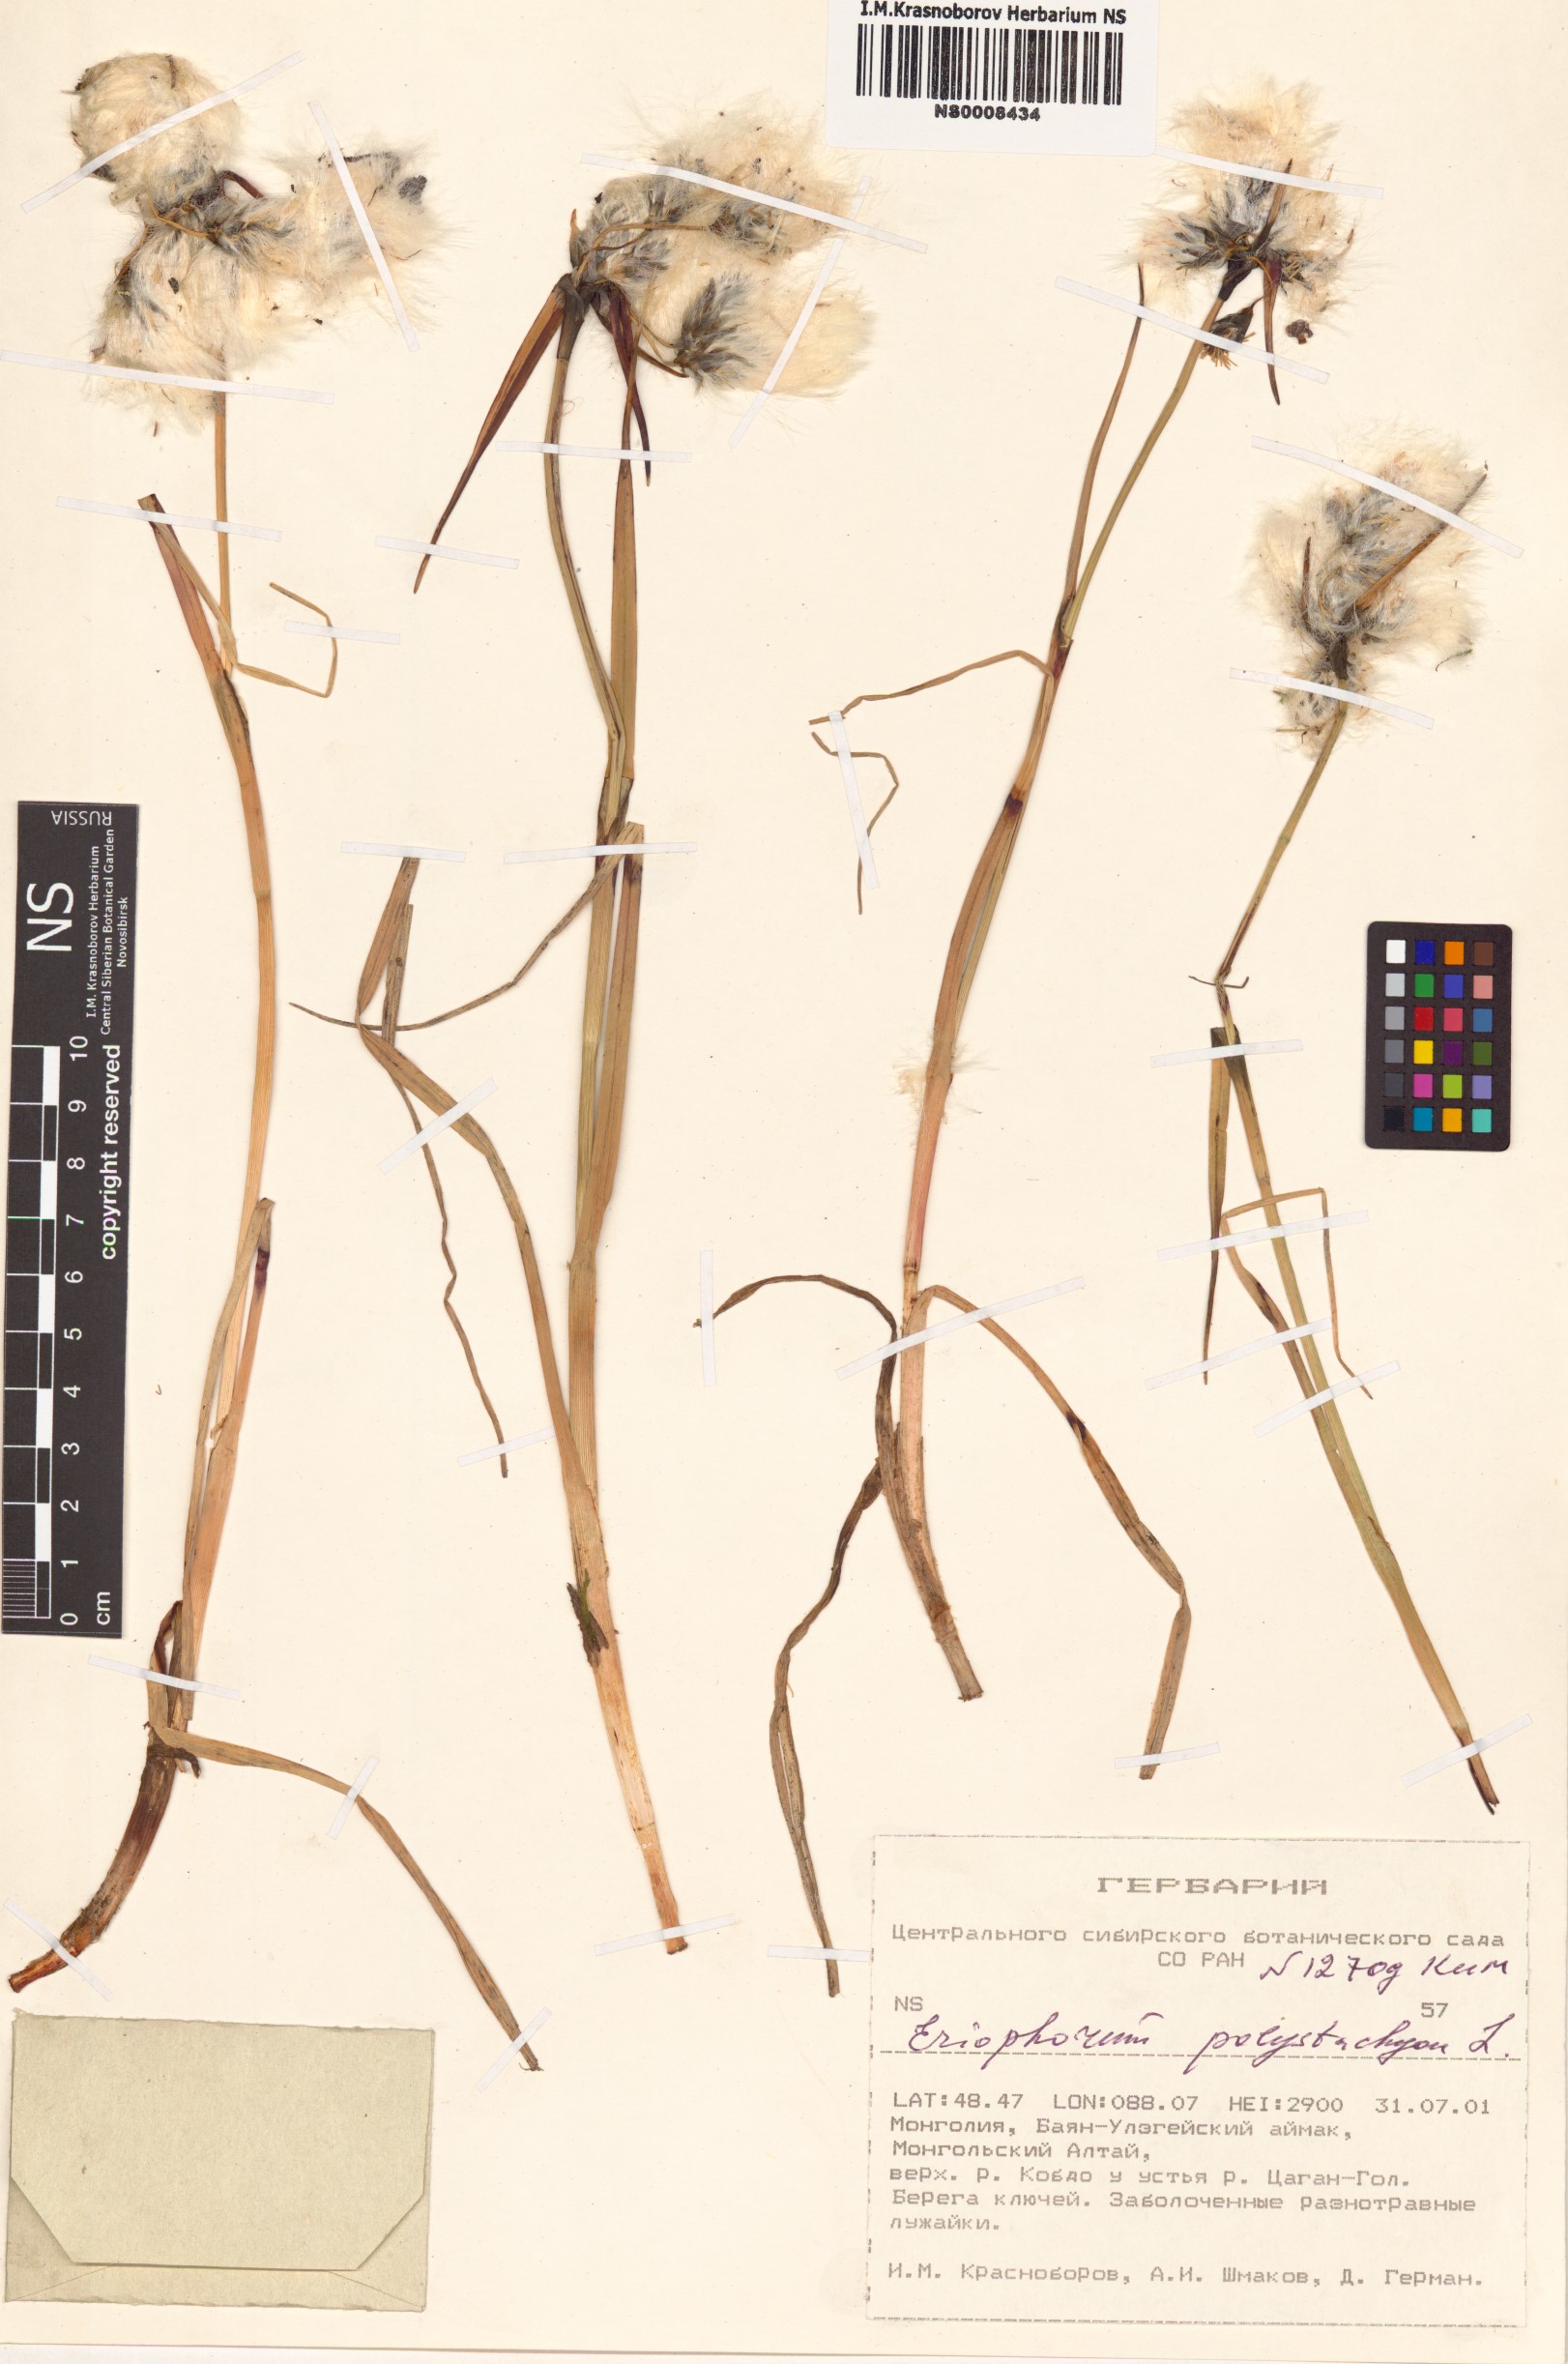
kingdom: Plantae
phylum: Tracheophyta
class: Liliopsida
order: Poales
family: Cyperaceae
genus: Eriophorum
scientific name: Eriophorum angustifolium
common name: Common cottongrass
